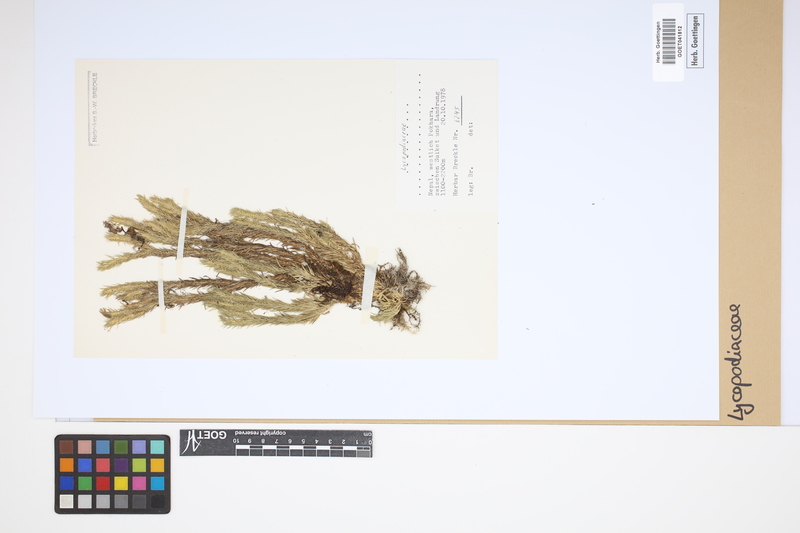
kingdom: Plantae
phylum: Tracheophyta
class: Lycopodiopsida
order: Lycopodiales
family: Lycopodiaceae
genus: Lycopodium
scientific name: Lycopodium
